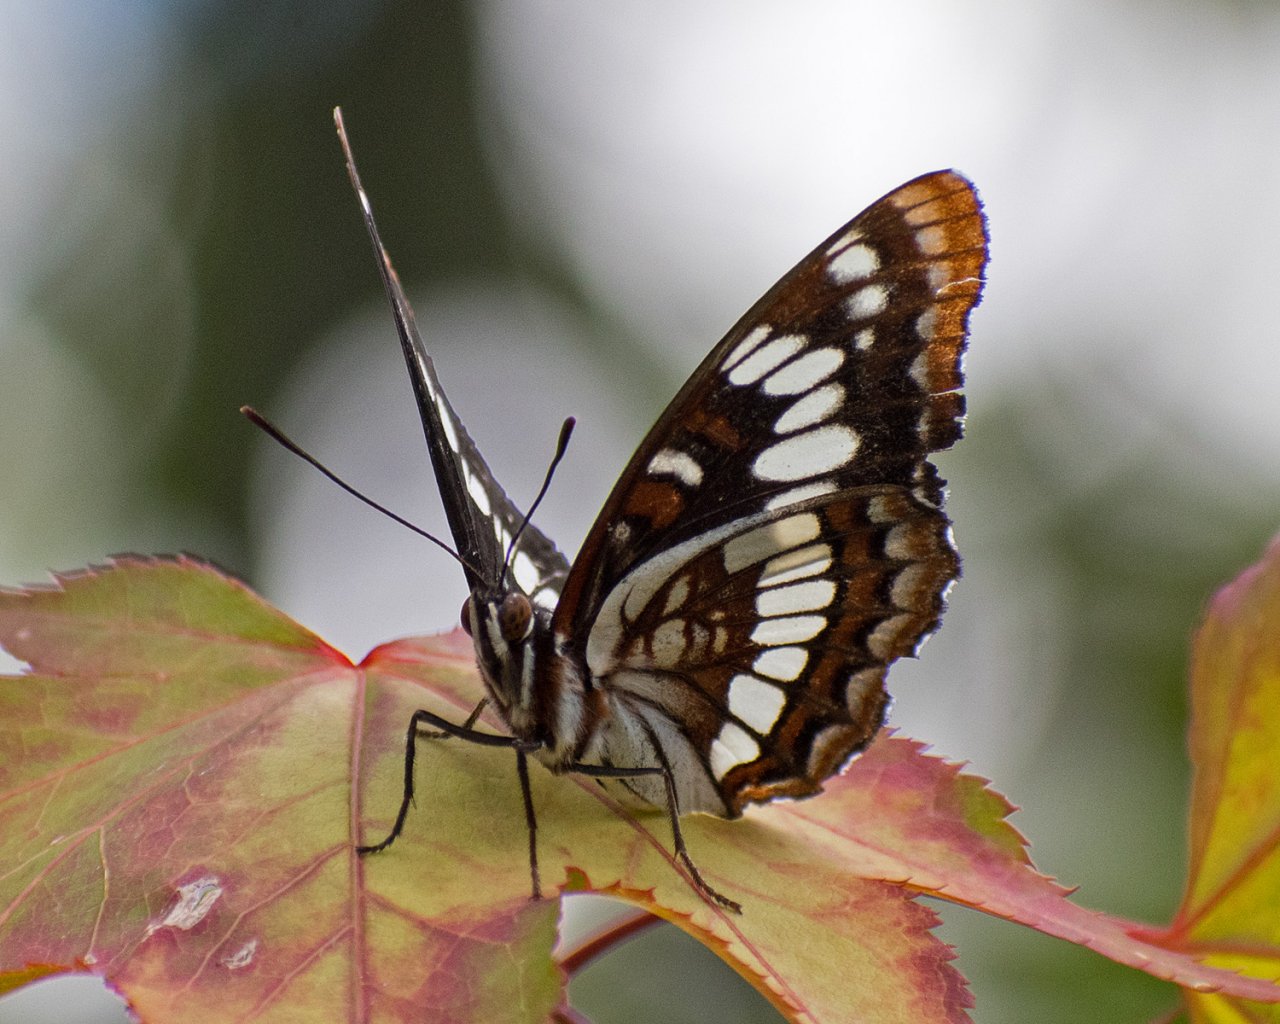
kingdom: Animalia
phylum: Arthropoda
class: Insecta
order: Lepidoptera
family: Nymphalidae
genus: Limenitis
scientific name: Limenitis lorquini
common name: Lorquin's Admiral
